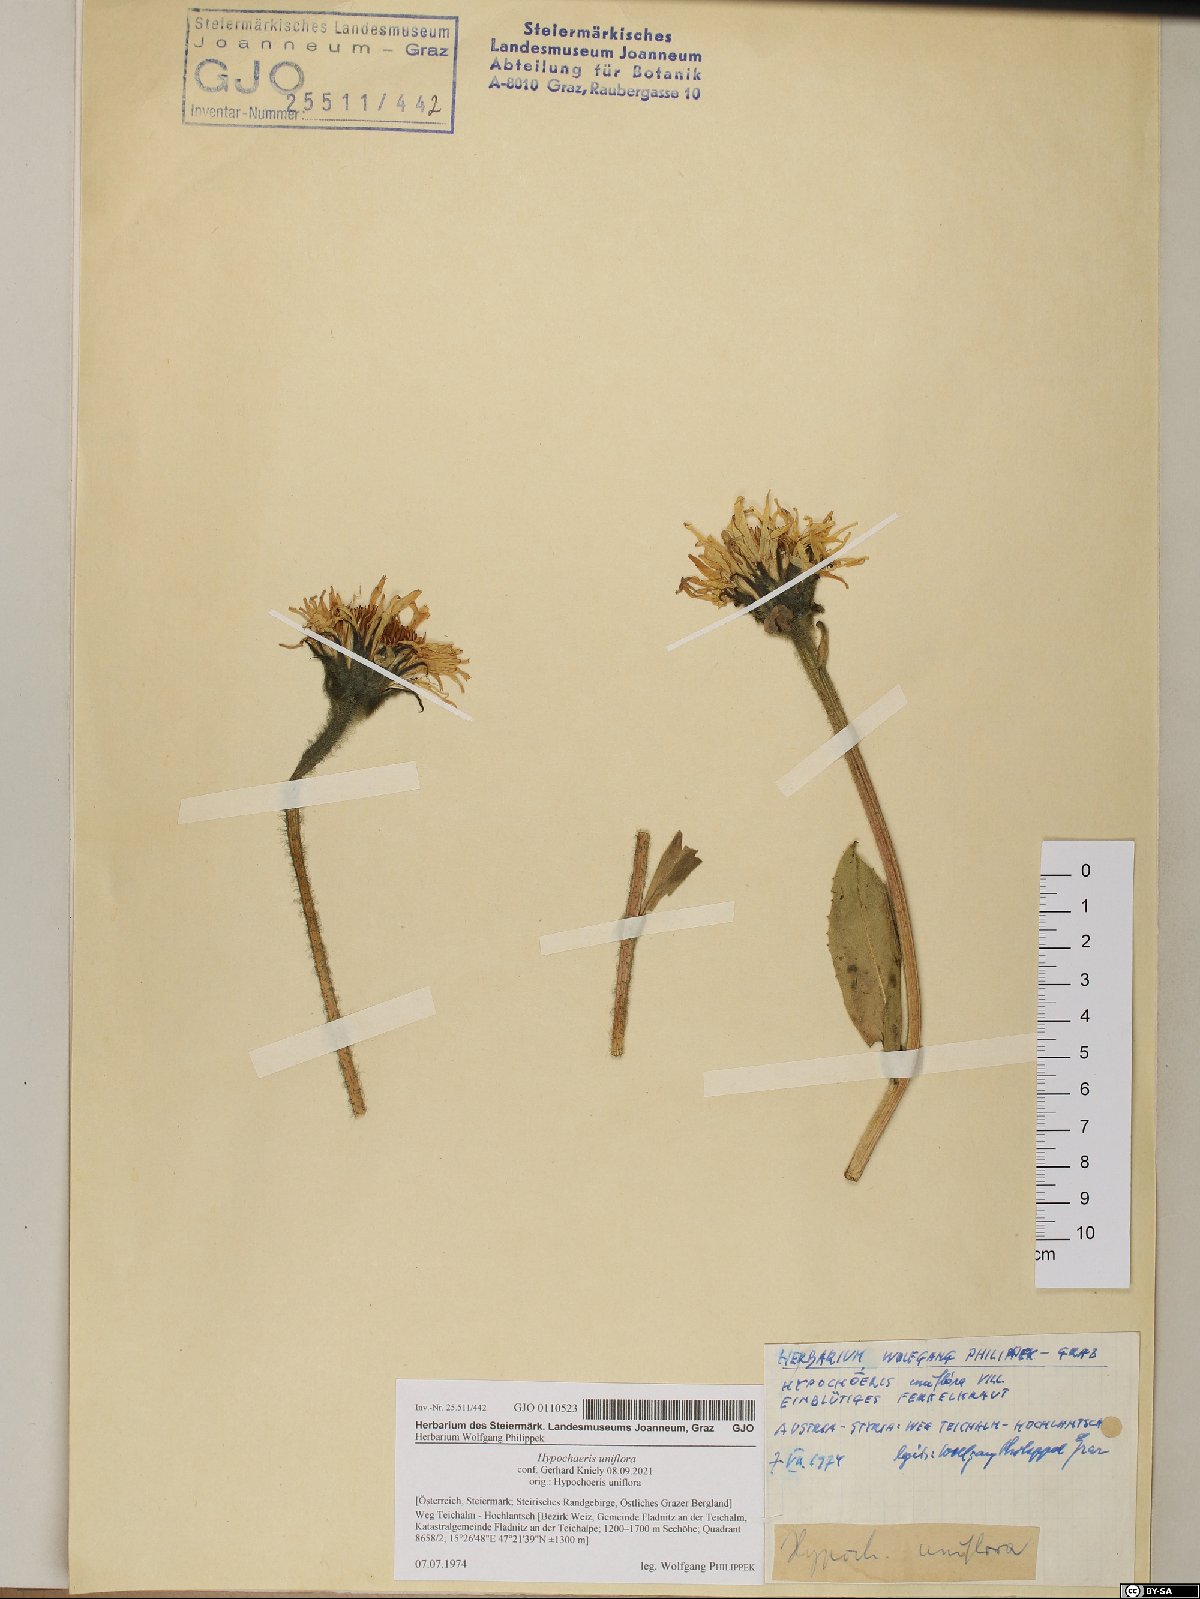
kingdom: Plantae
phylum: Tracheophyta
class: Magnoliopsida
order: Asterales
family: Asteraceae
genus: Trommsdorffia
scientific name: Trommsdorffia uniflora
